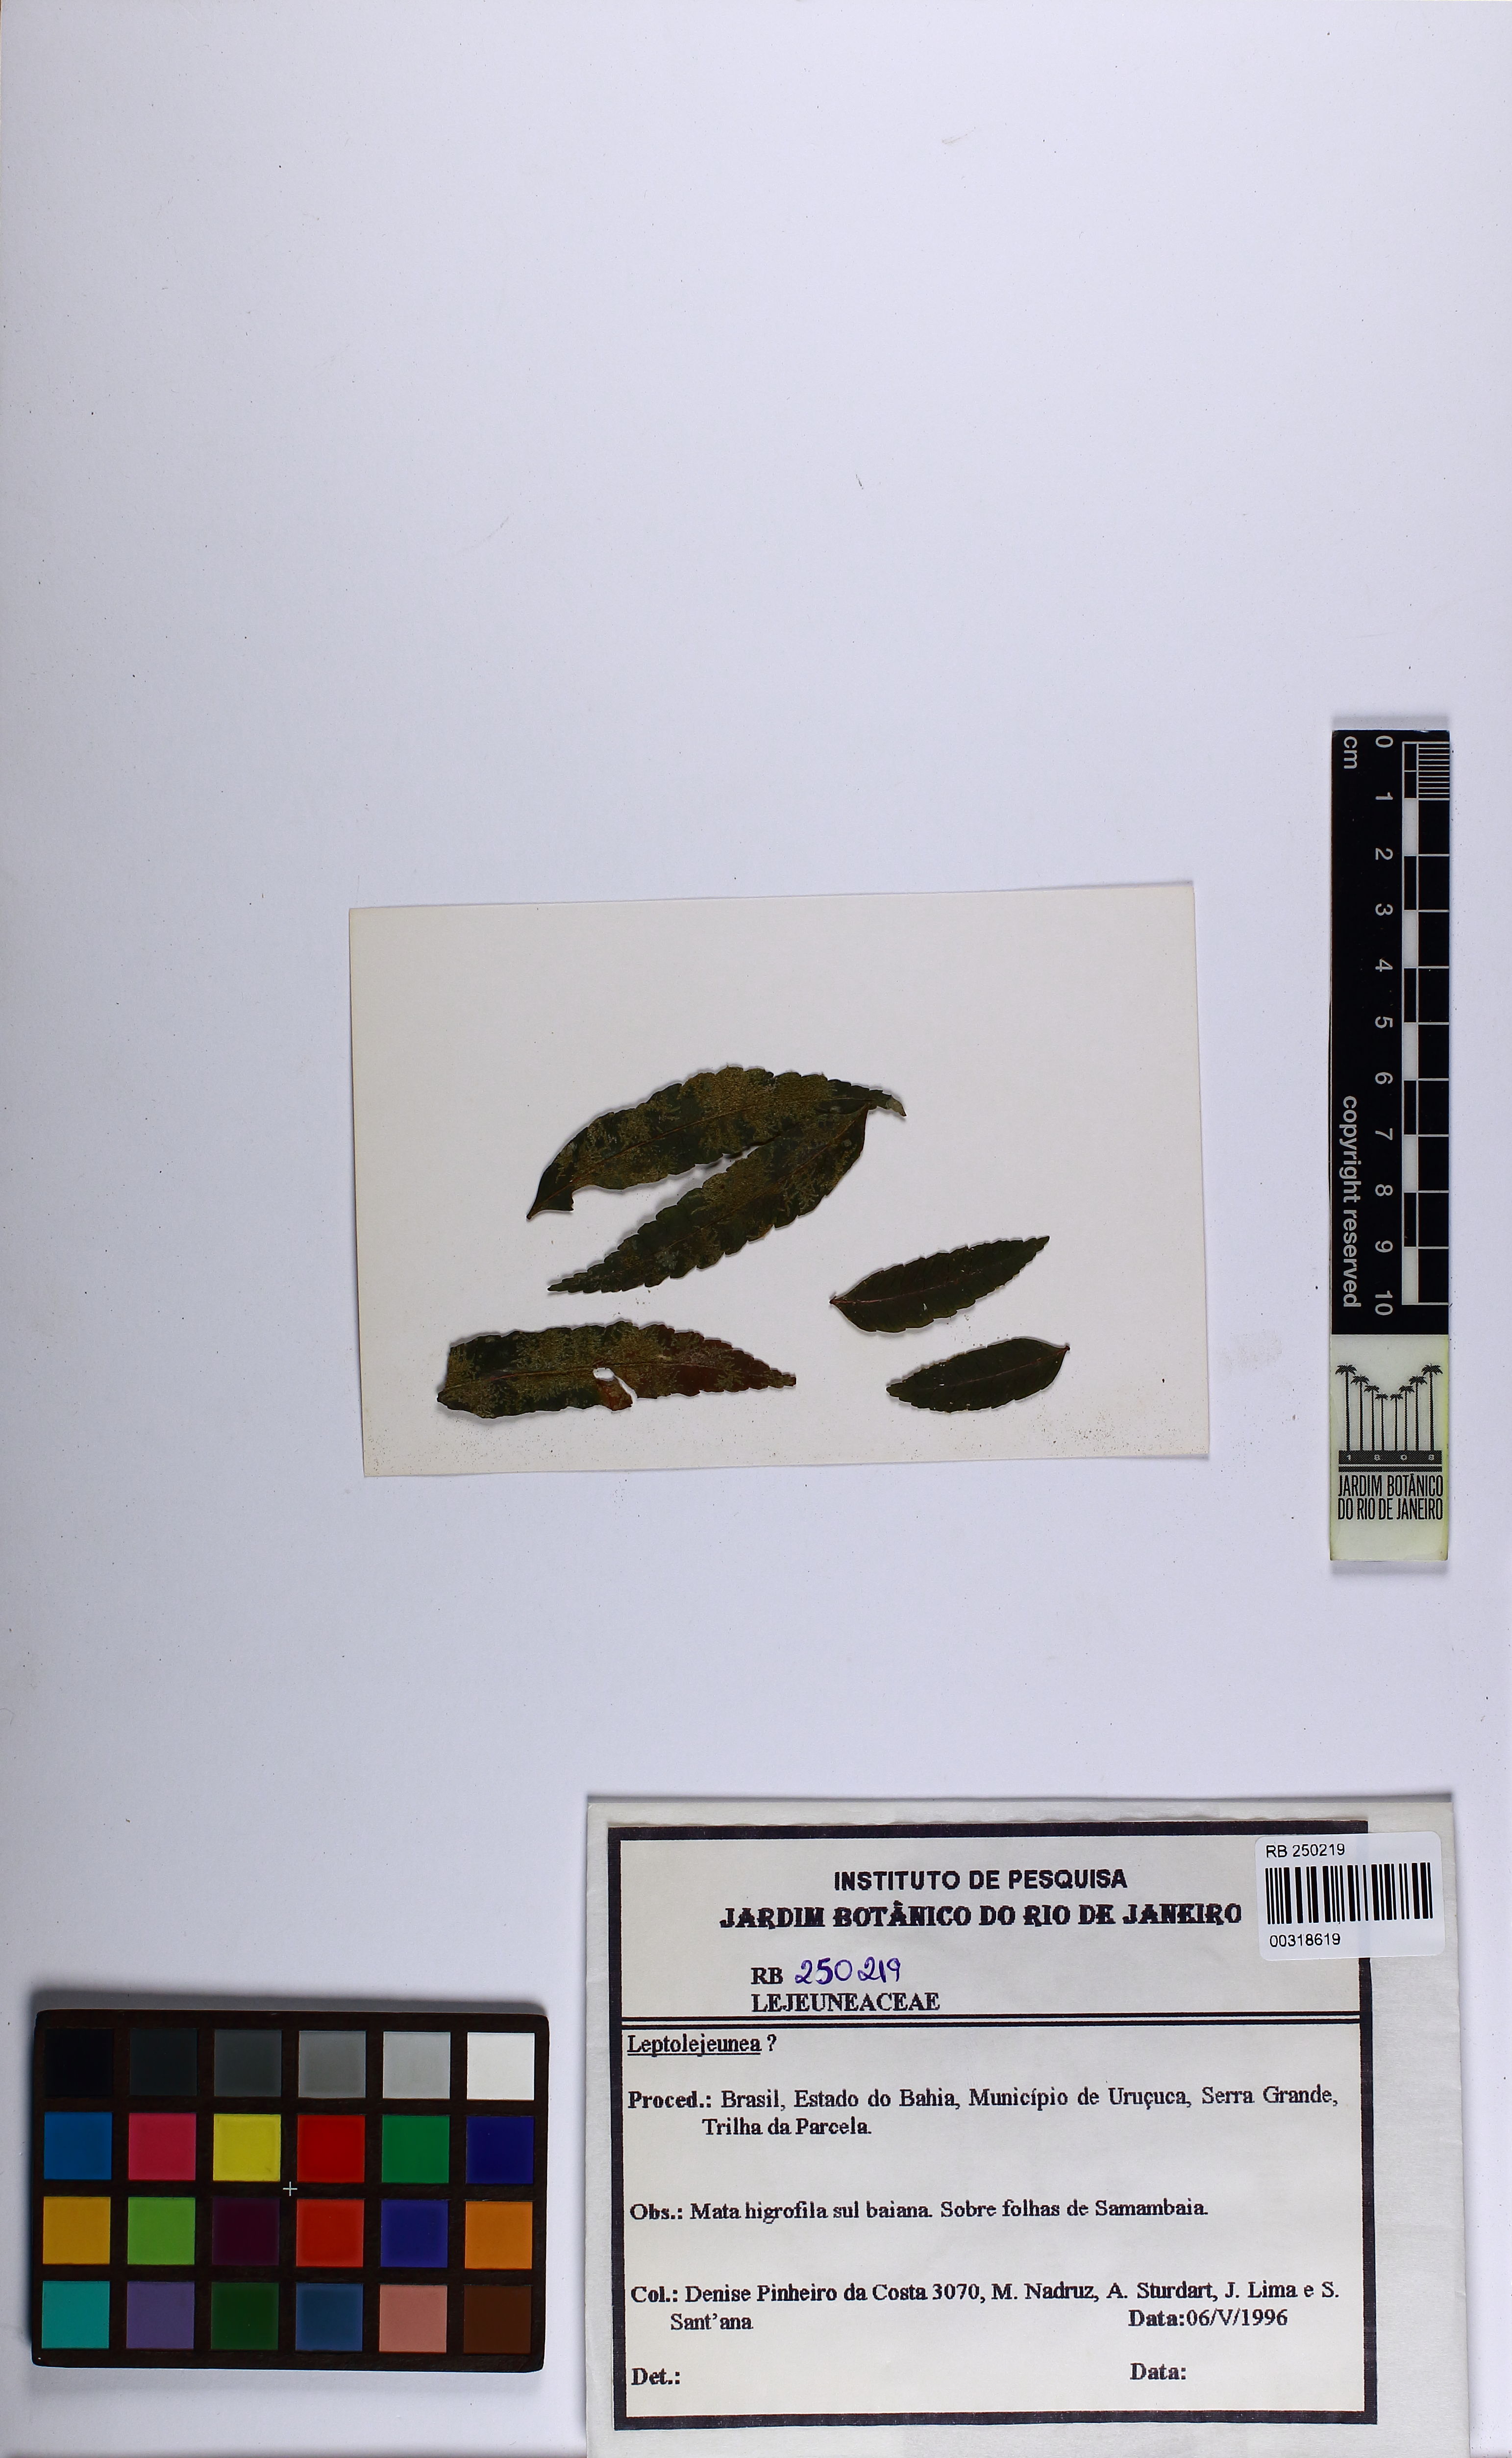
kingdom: Plantae
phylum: Marchantiophyta
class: Jungermanniopsida
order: Porellales
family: Lejeuneaceae
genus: Leptolejeunea
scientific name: Leptolejeunea
